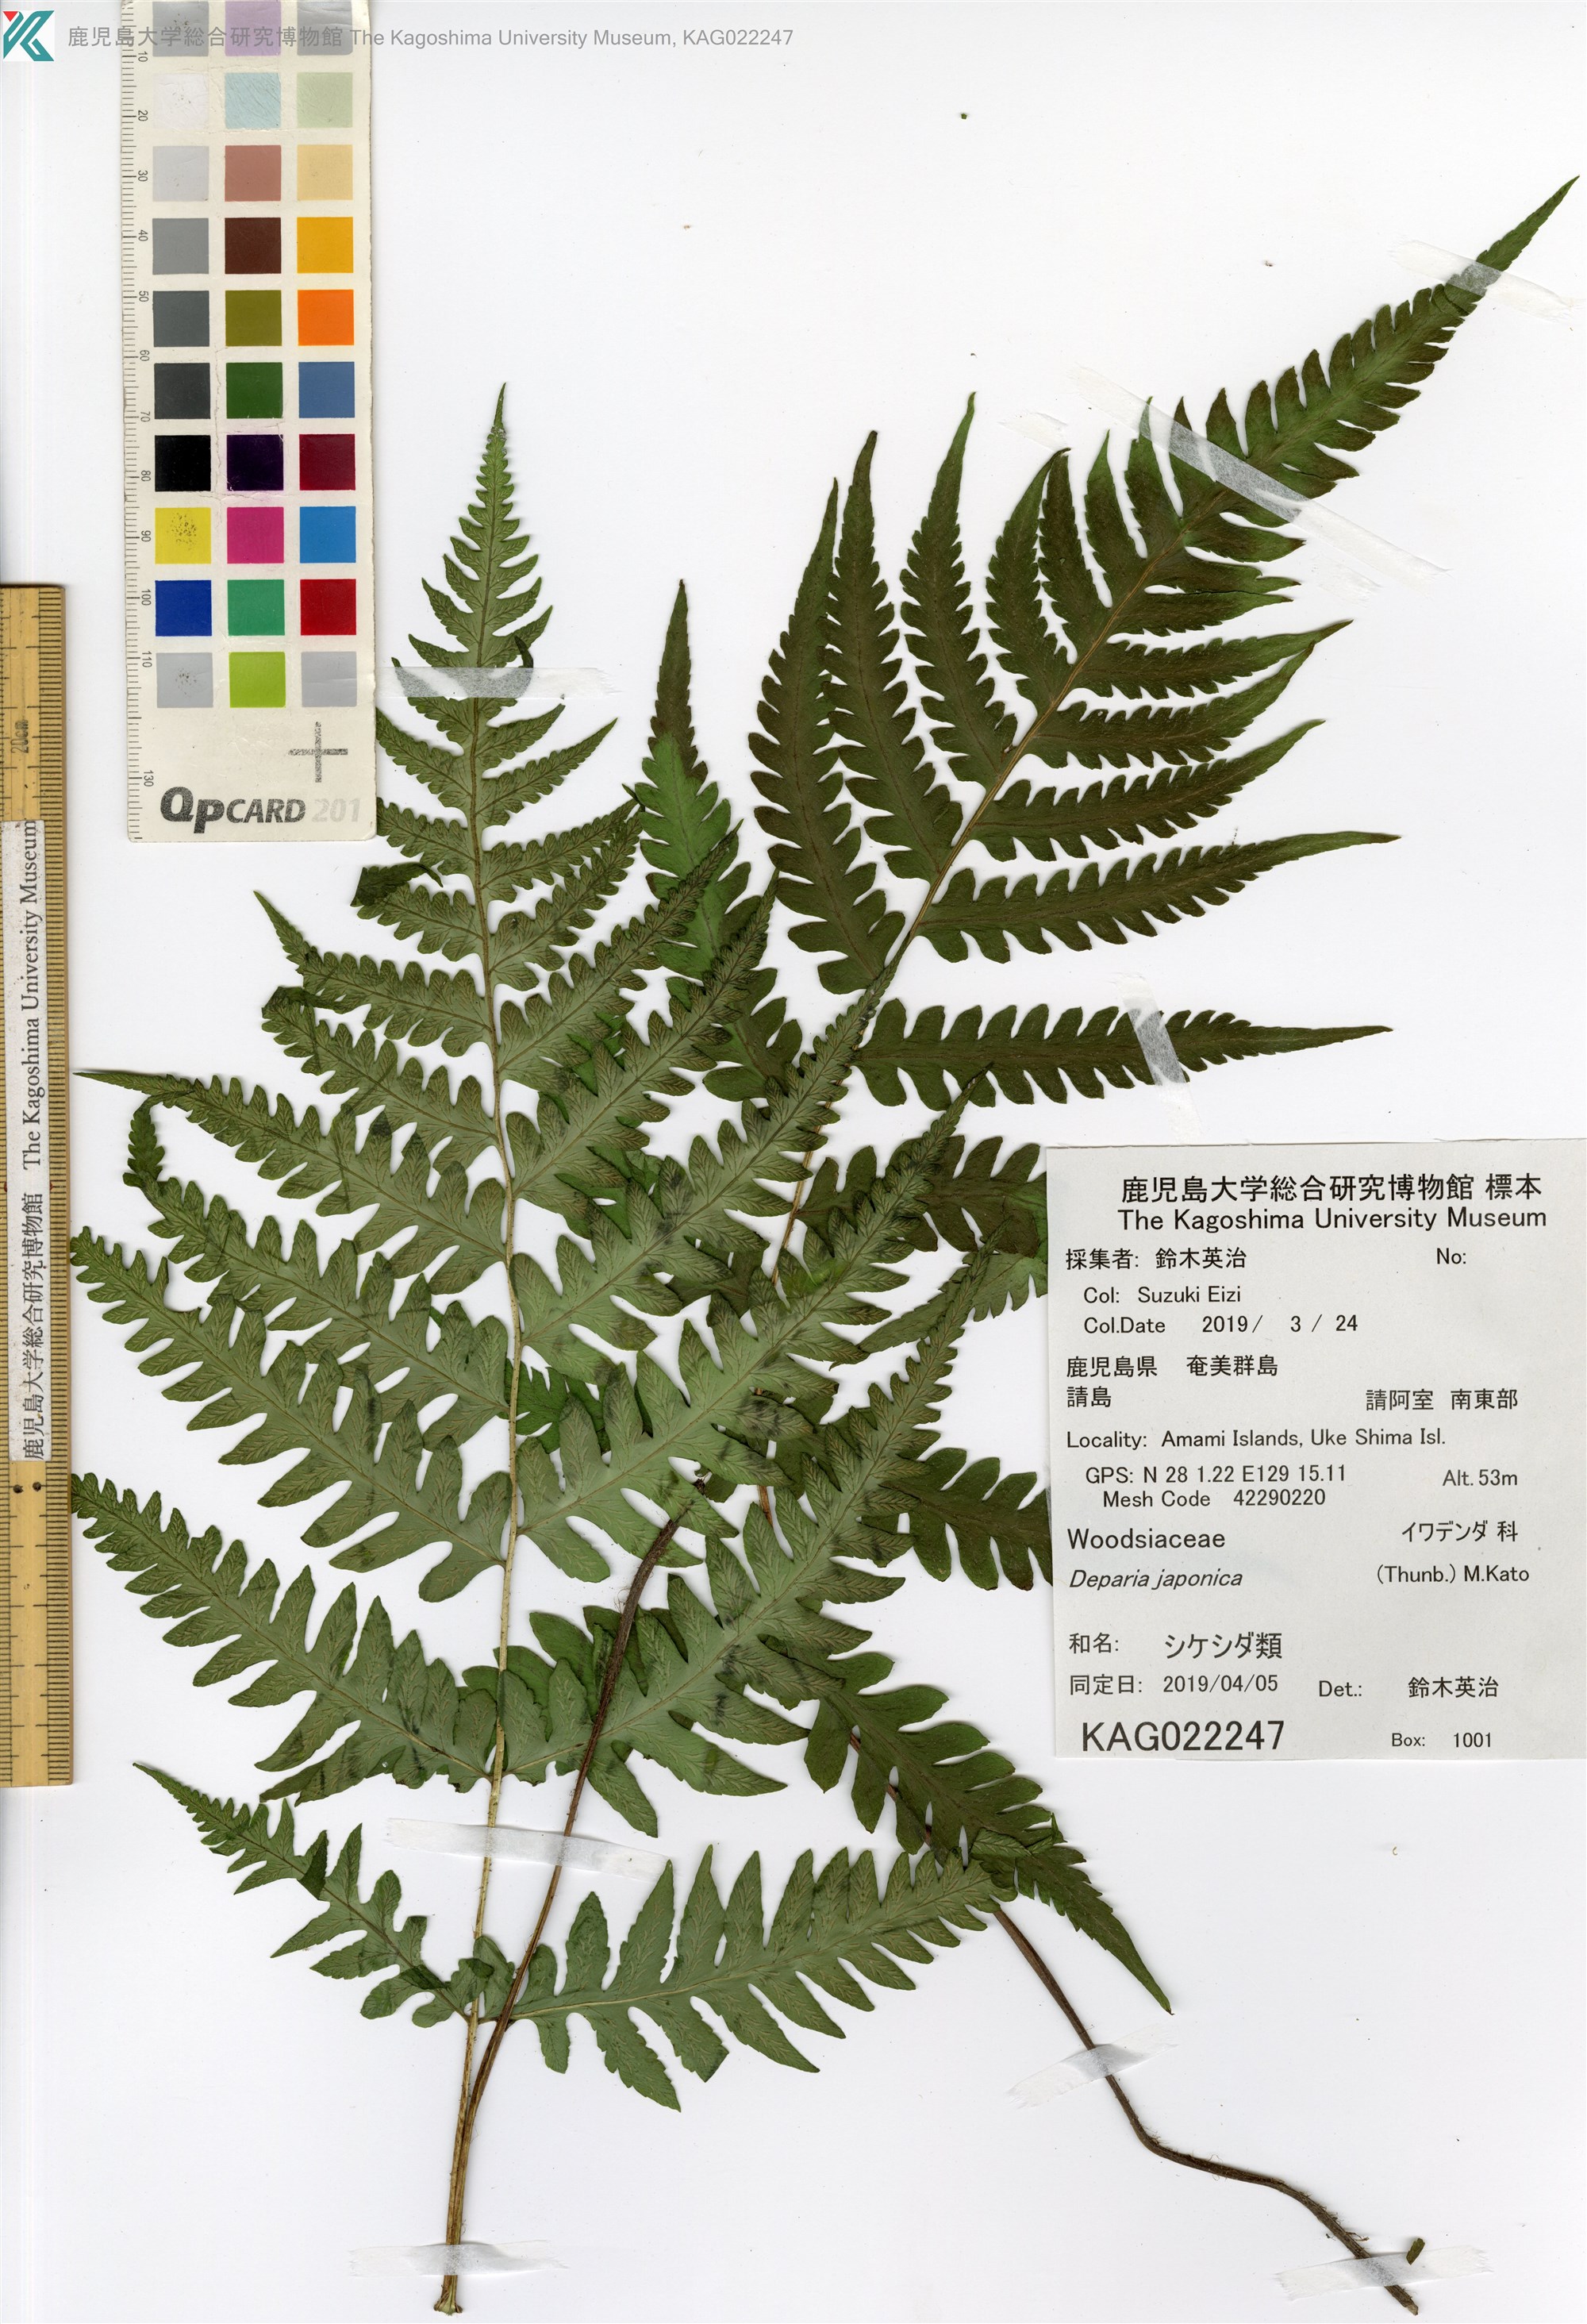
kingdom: Plantae
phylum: Tracheophyta
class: Polypodiopsida
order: Polypodiales
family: Athyriaceae
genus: Deparia
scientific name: Deparia petersenii
